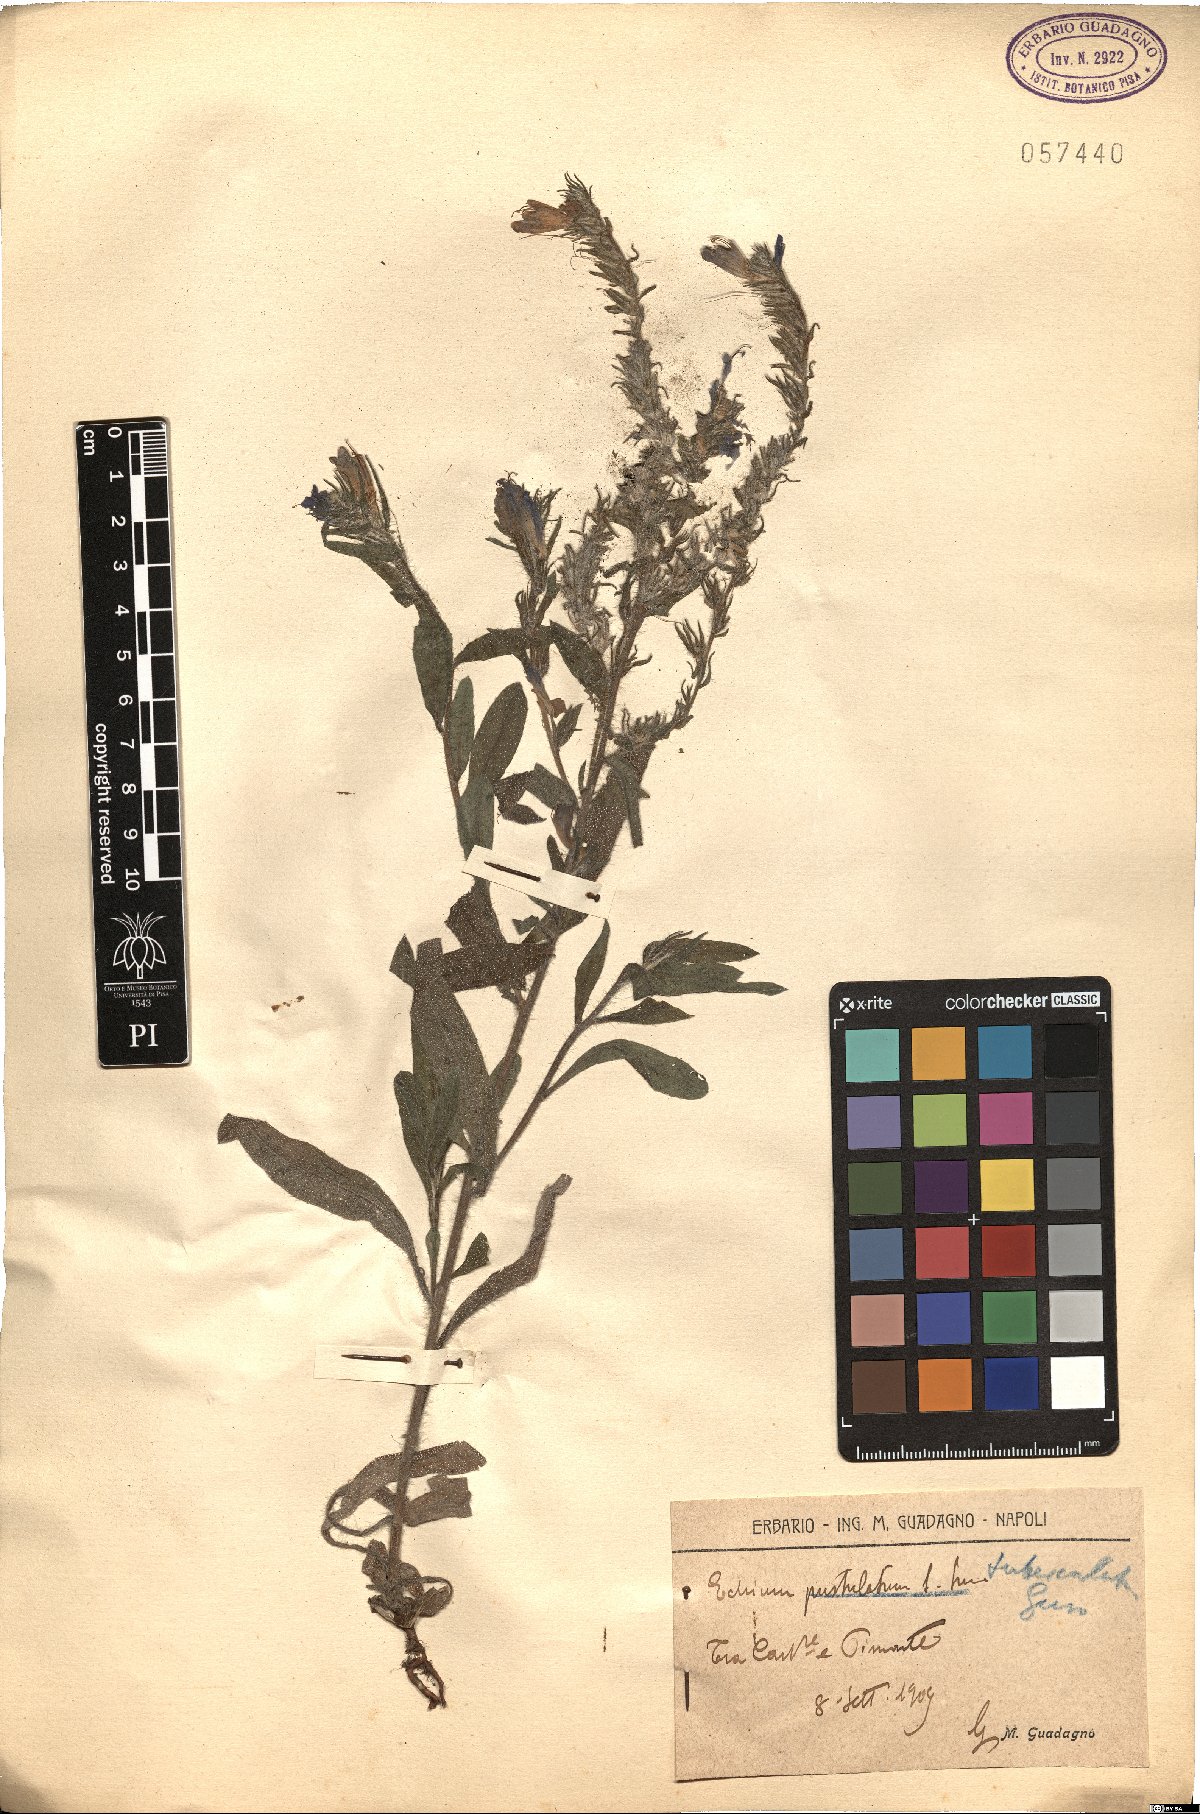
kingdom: Plantae
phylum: Tracheophyta
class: Magnoliopsida
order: Boraginales
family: Boraginaceae
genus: Echium
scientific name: Echium tuberculatum
